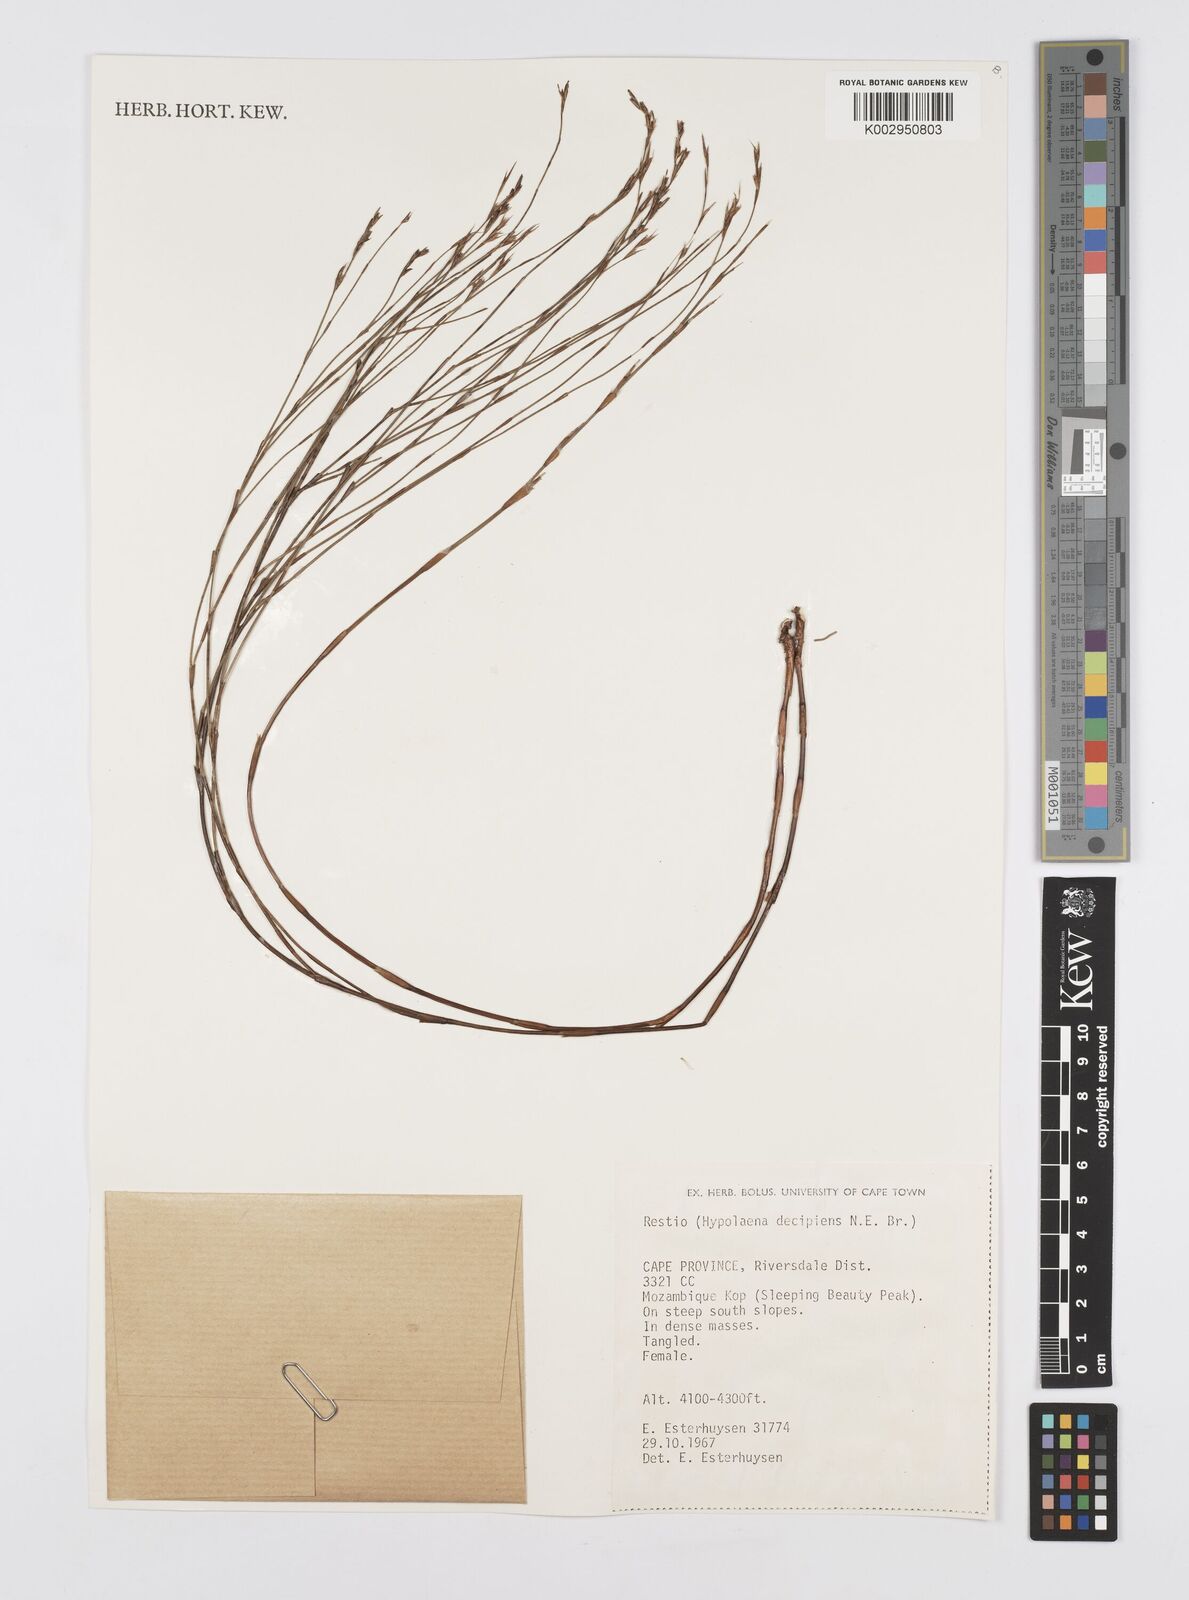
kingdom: Plantae
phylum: Tracheophyta
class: Liliopsida
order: Poales
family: Restionaceae
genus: Restio
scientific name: Restio decipiens
